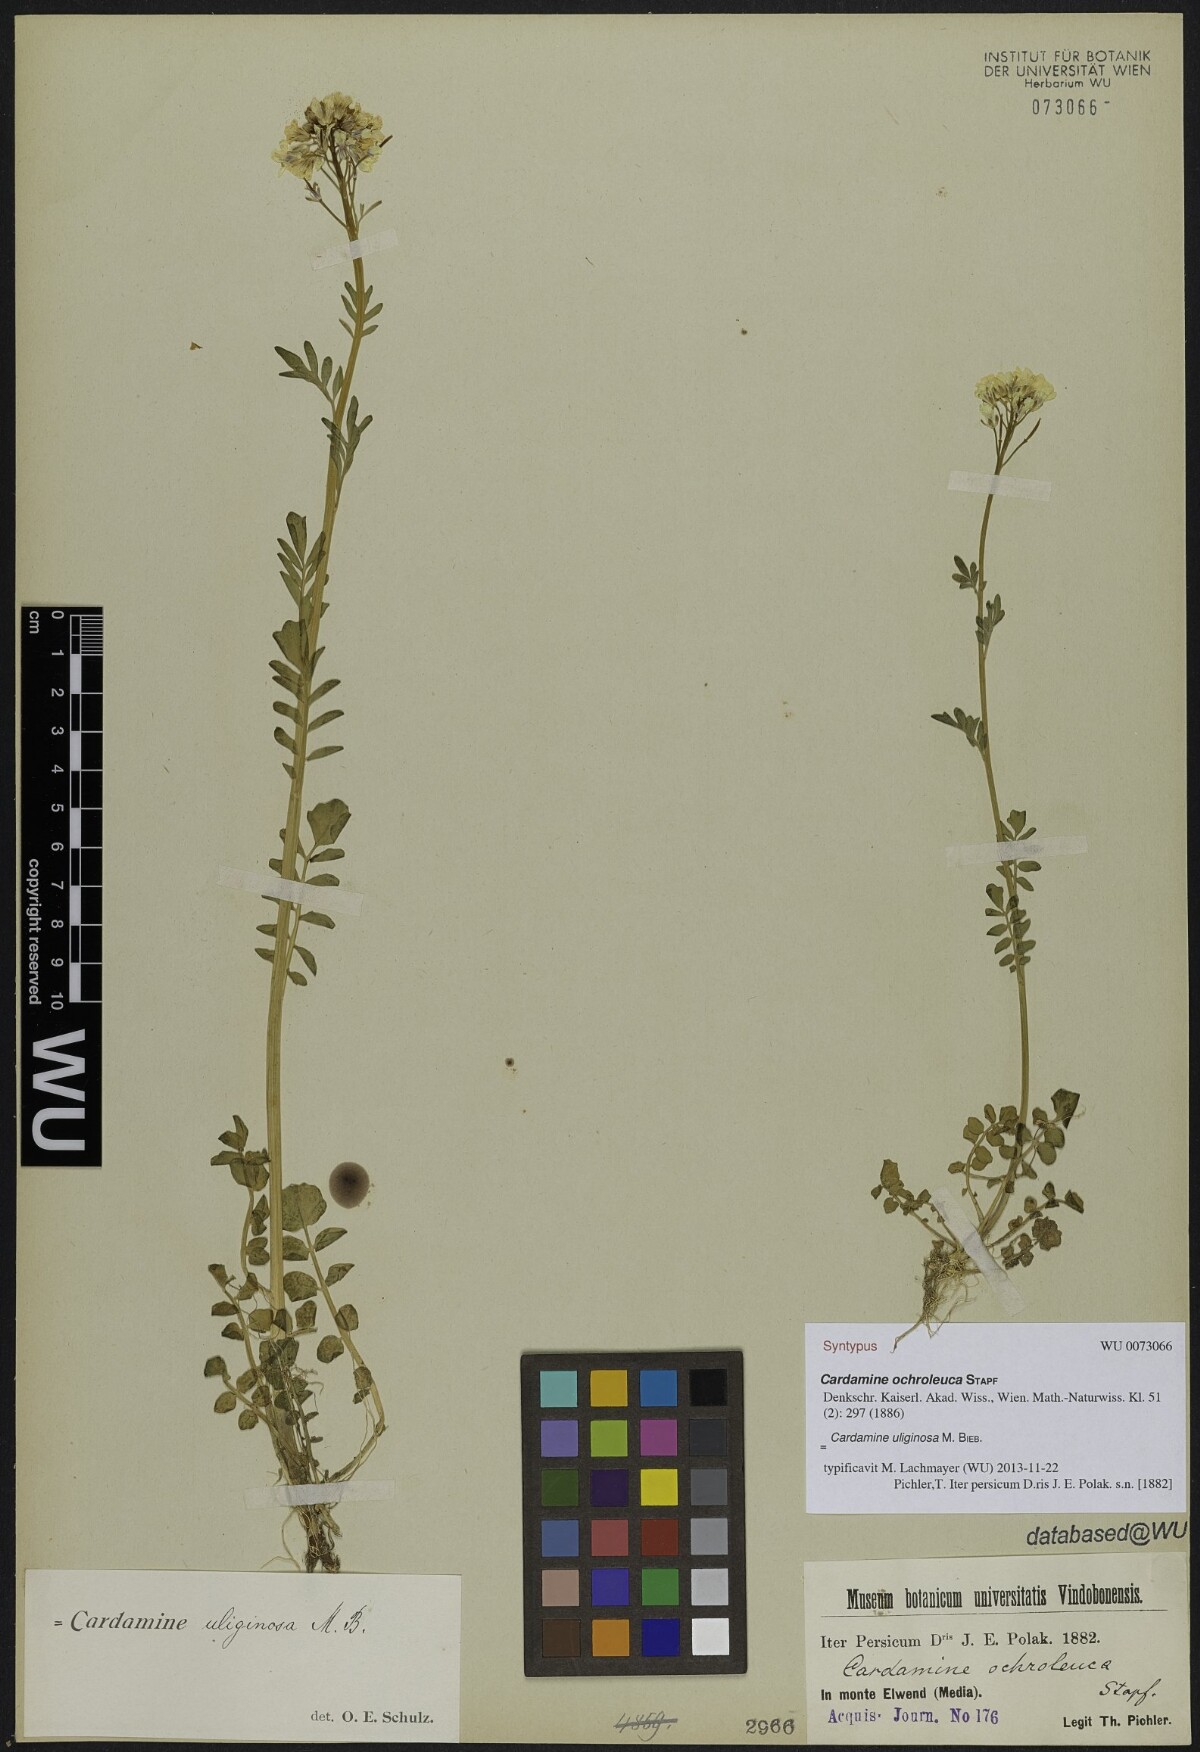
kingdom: Plantae
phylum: Tracheophyta
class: Magnoliopsida
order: Brassicales
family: Brassicaceae
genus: Cardamine
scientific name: Cardamine uliginosa
